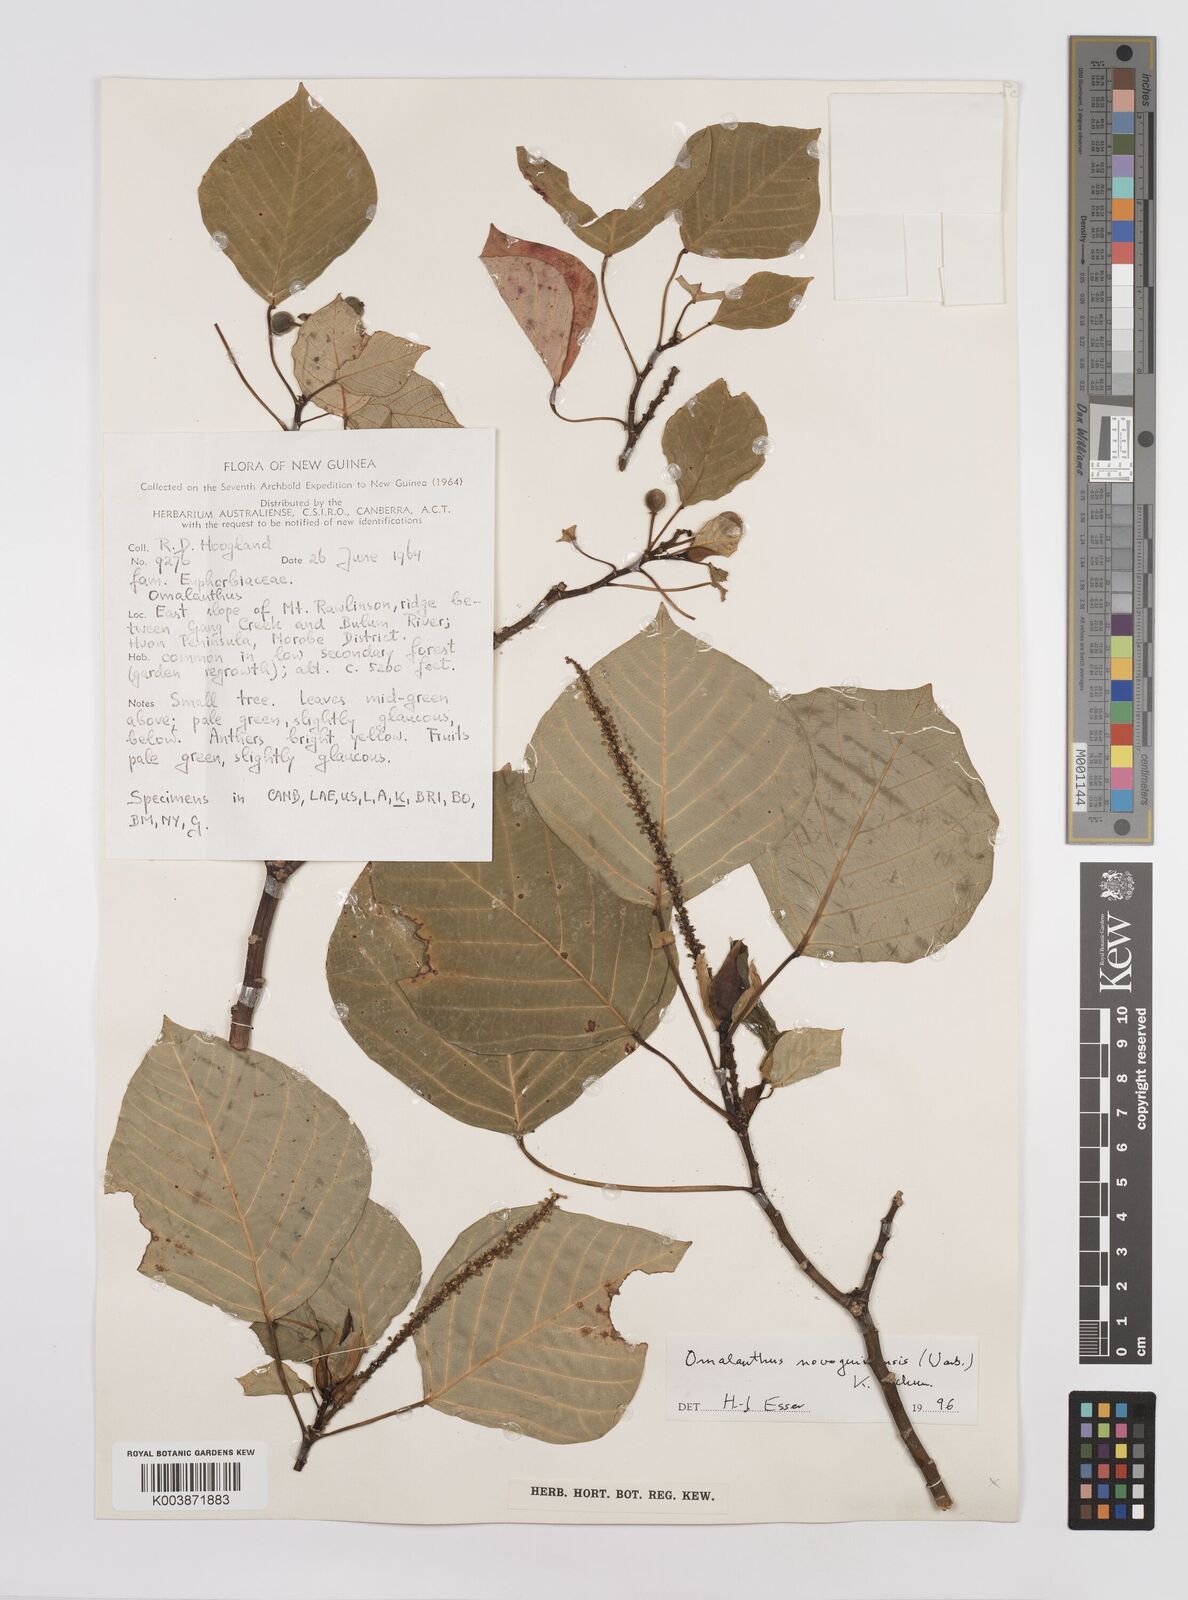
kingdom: Plantae
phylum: Tracheophyta
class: Magnoliopsida
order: Malpighiales
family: Euphorbiaceae
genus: Homalanthus
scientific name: Homalanthus novoguineensis
